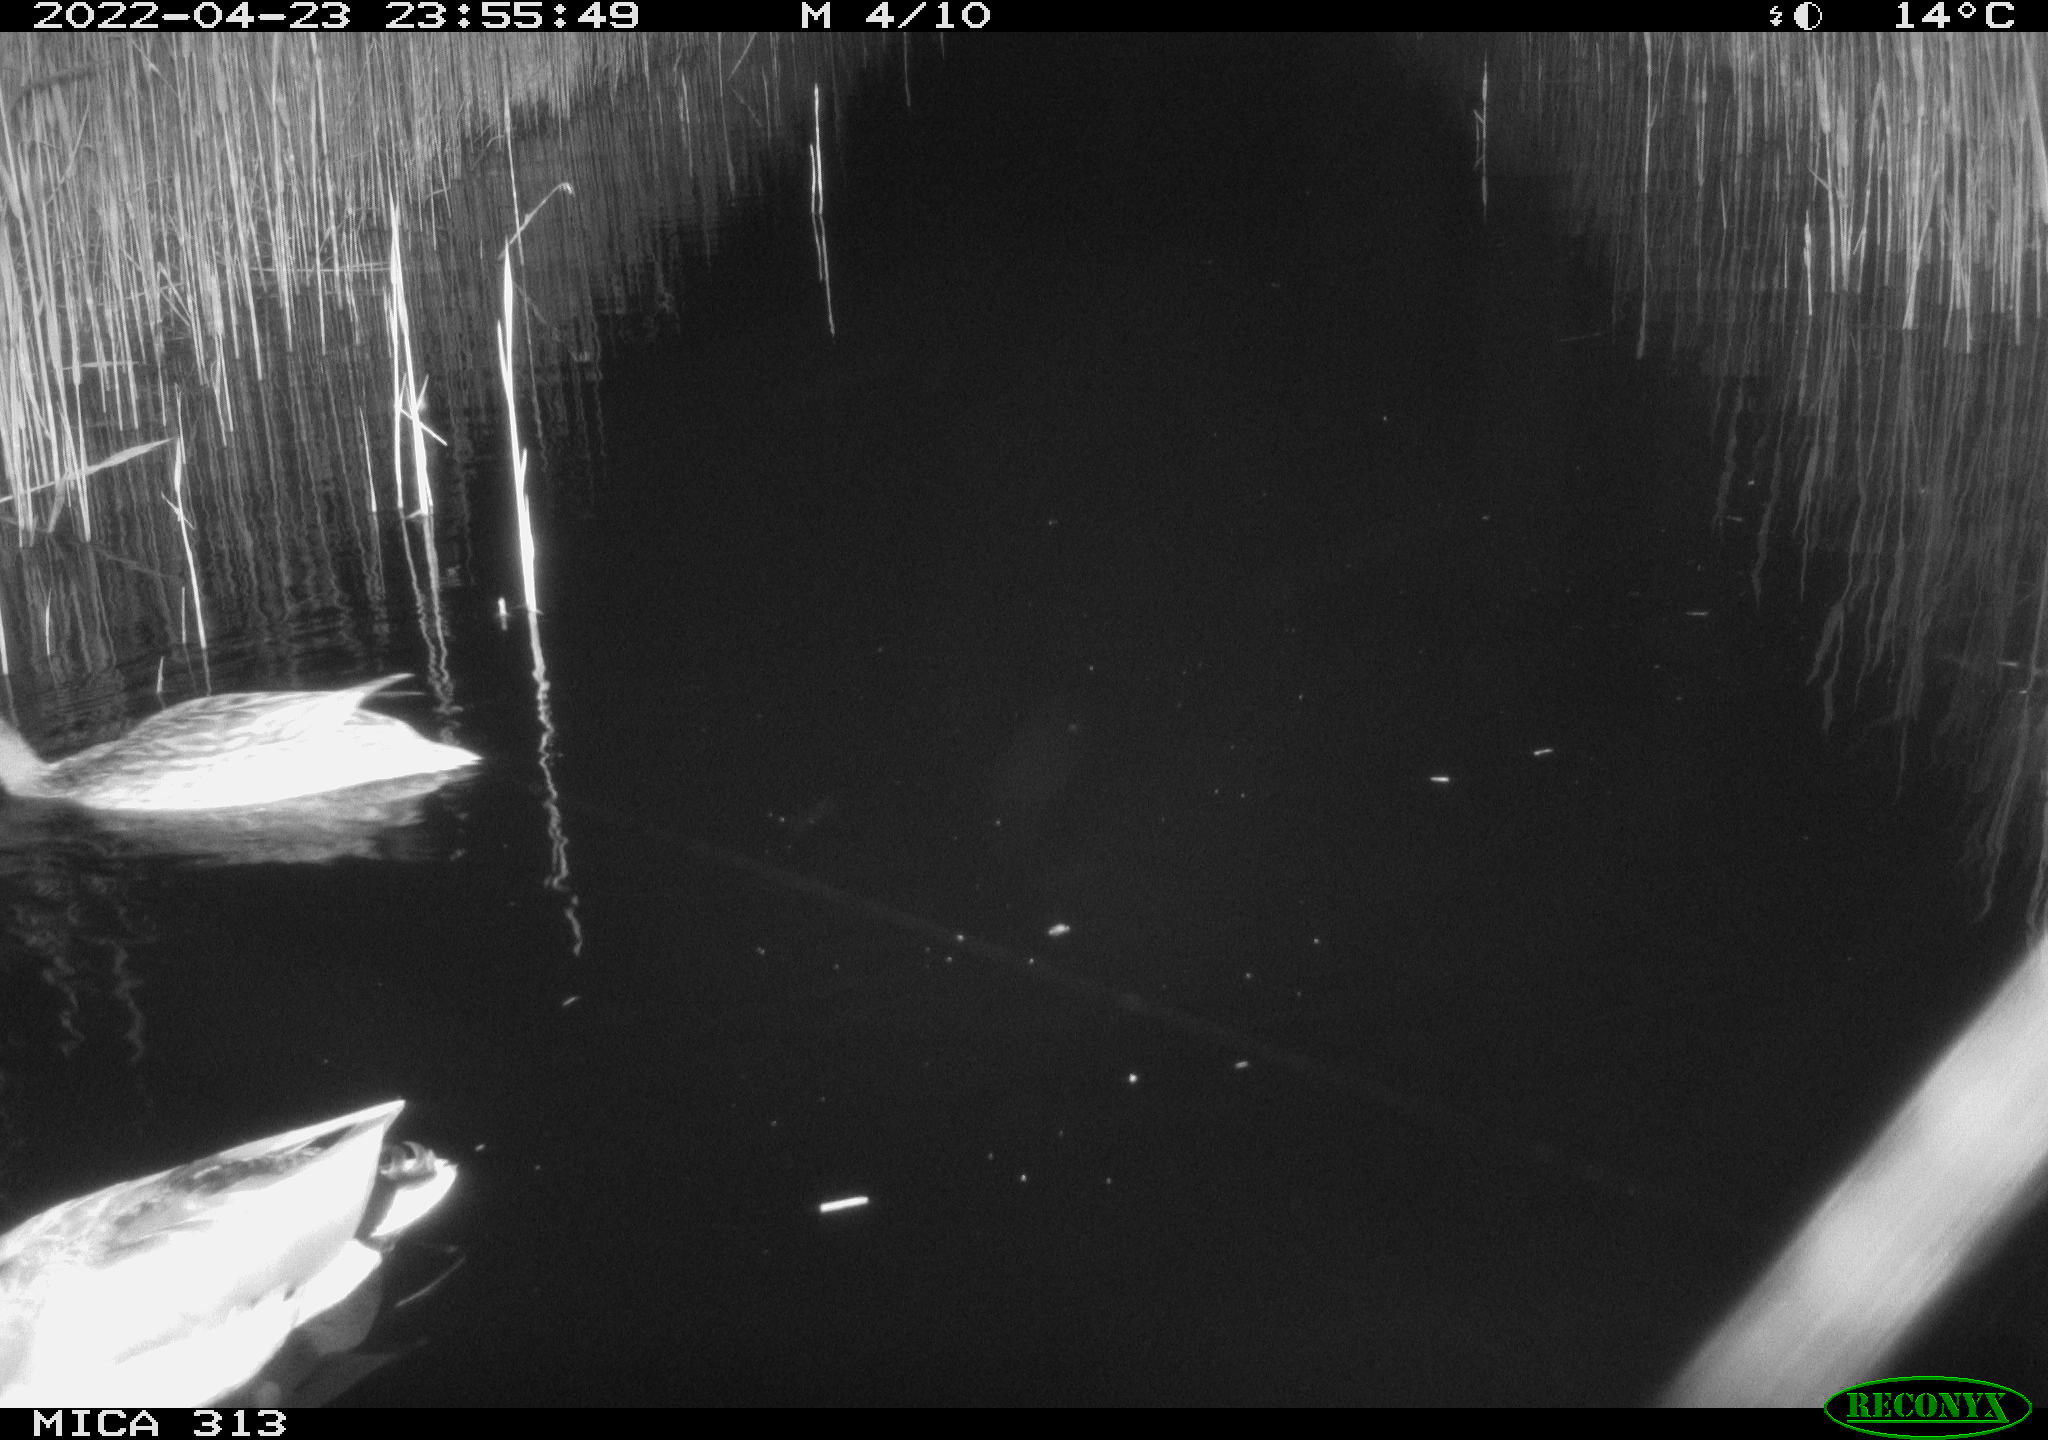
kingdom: Animalia
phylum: Chordata
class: Aves
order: Anseriformes
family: Anatidae
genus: Mareca
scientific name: Mareca strepera
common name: Gadwall
